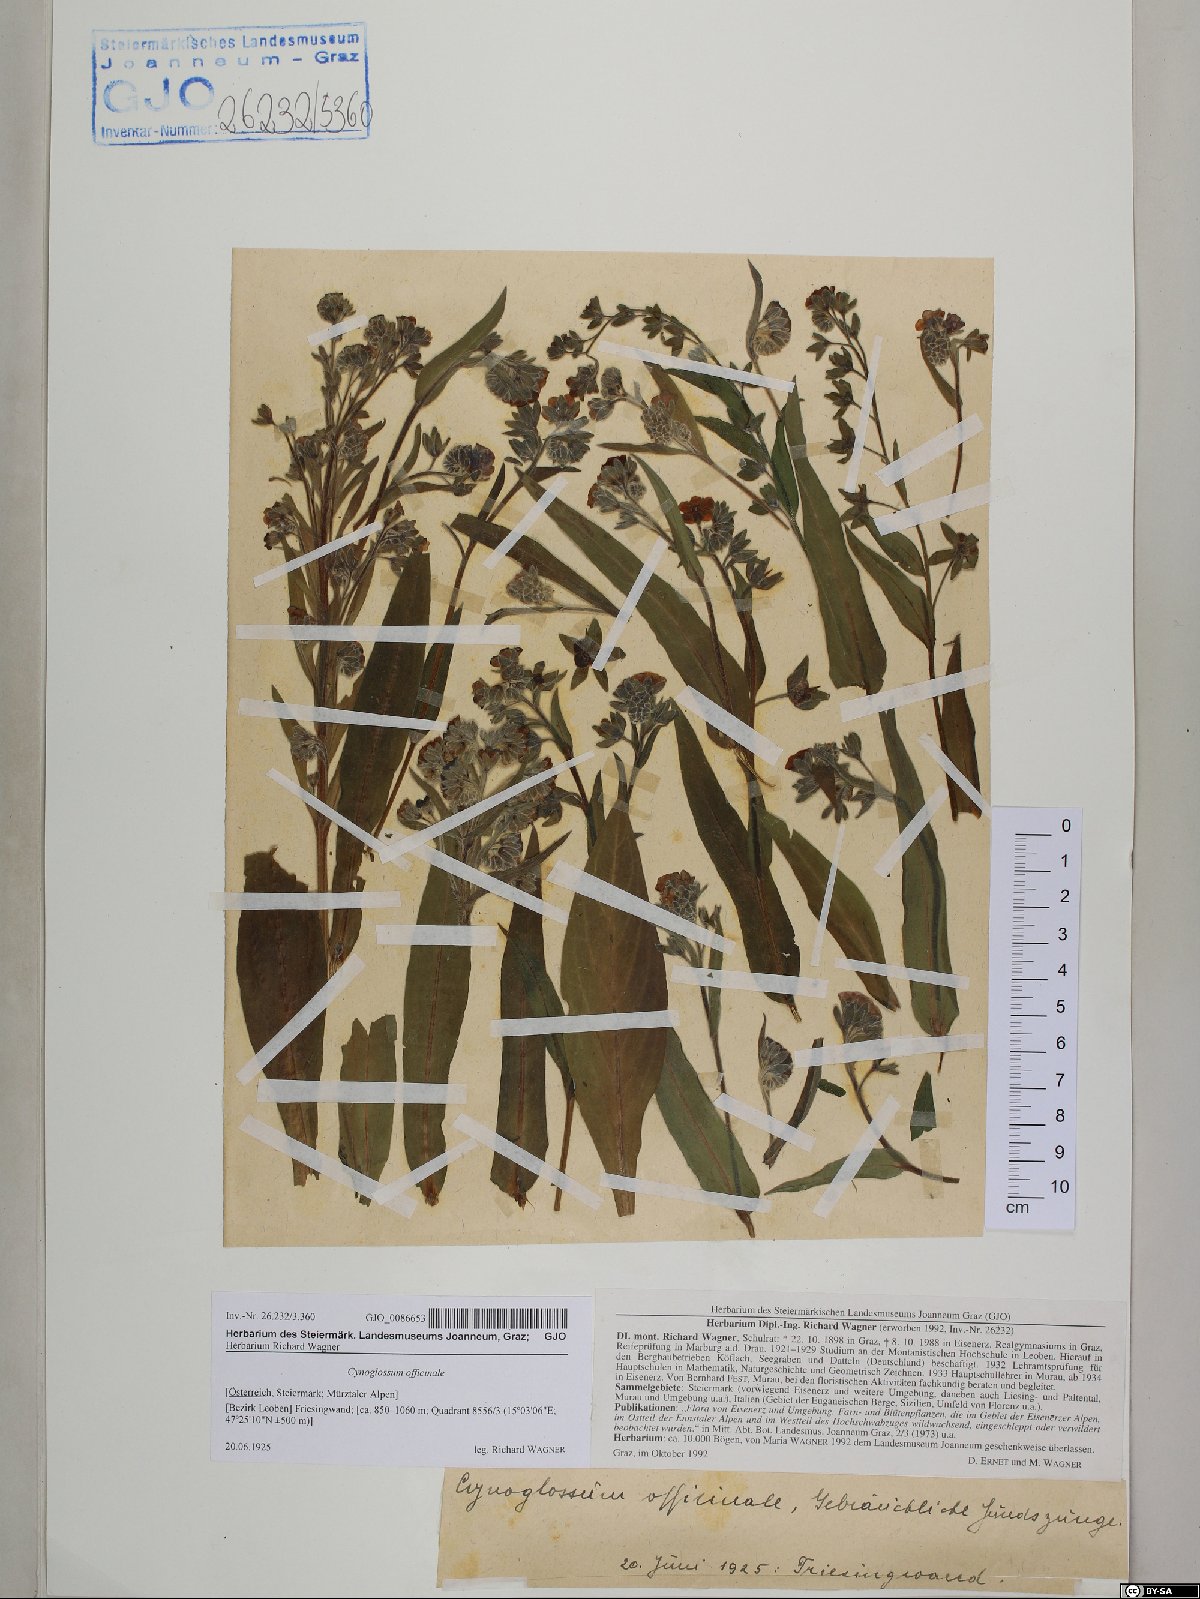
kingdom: Plantae
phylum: Tracheophyta
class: Magnoliopsida
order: Boraginales
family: Boraginaceae
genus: Cynoglossum
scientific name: Cynoglossum officinale
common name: Hound's-tongue
